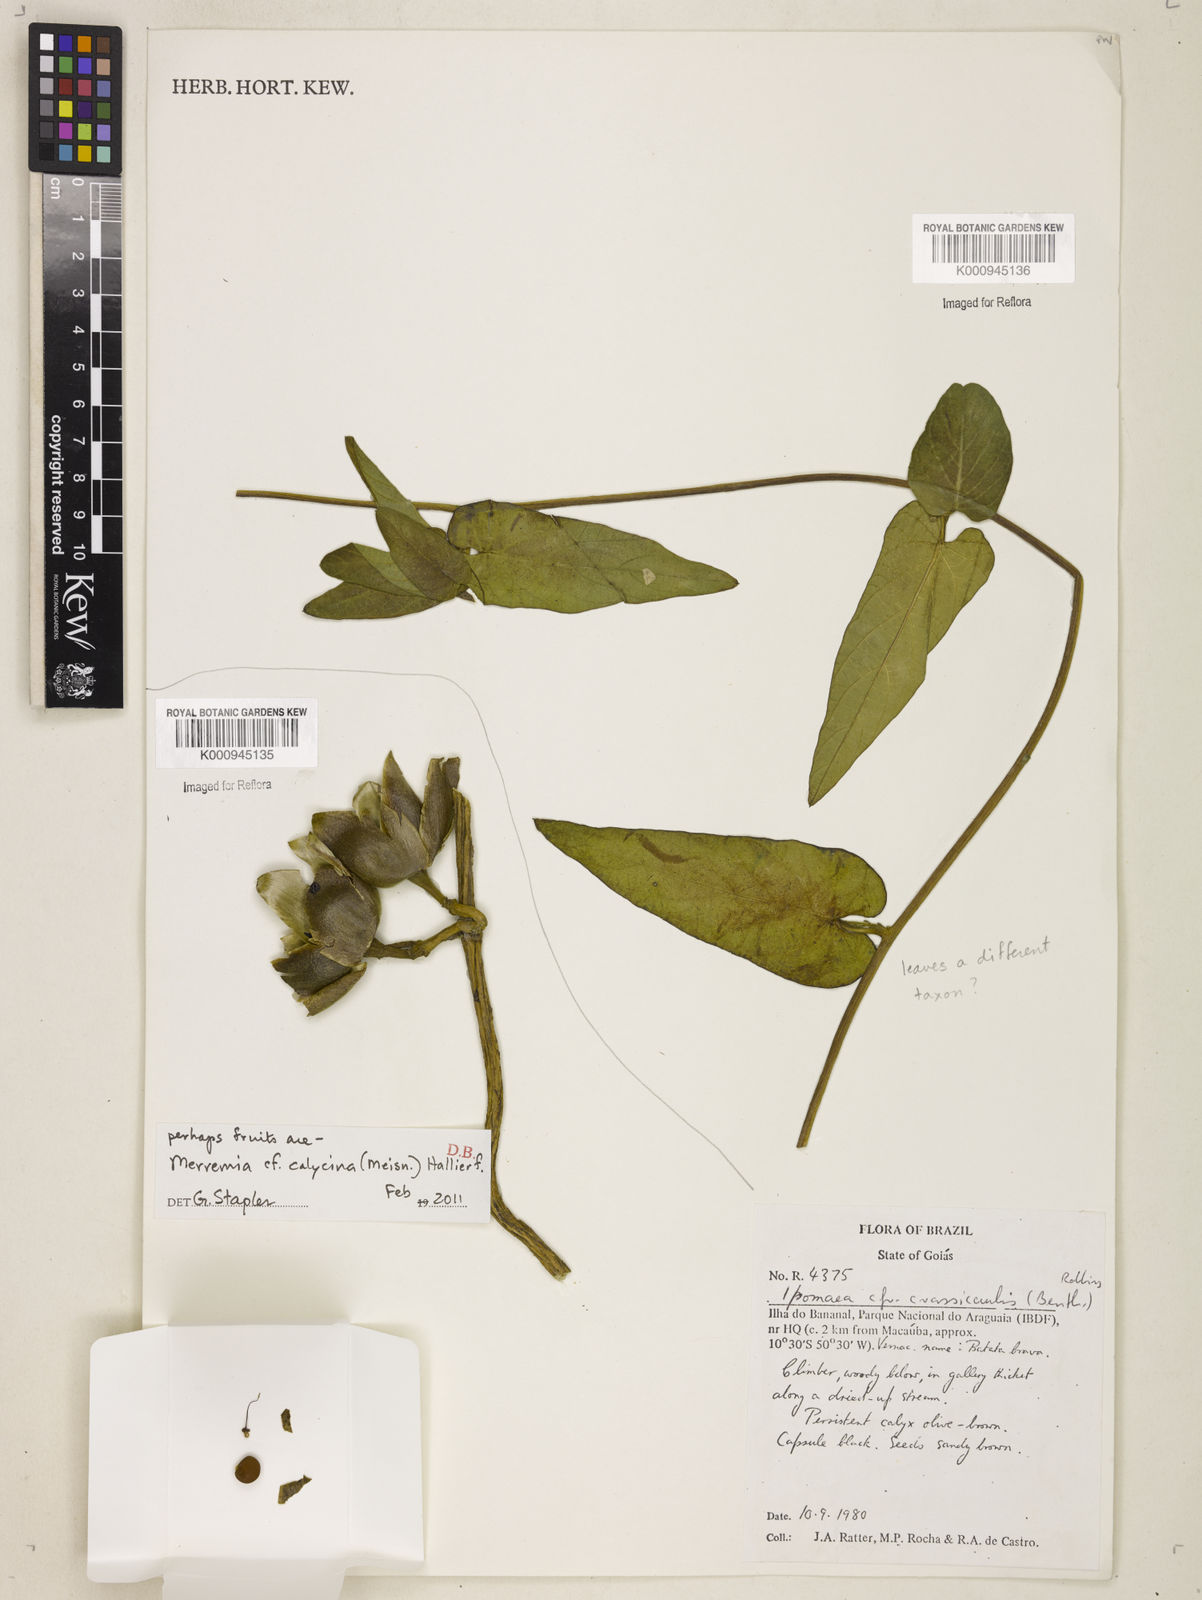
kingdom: Plantae
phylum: Tracheophyta
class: Magnoliopsida
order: Solanales
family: Convolvulaceae
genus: Odonellia
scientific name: Odonellia calycina
